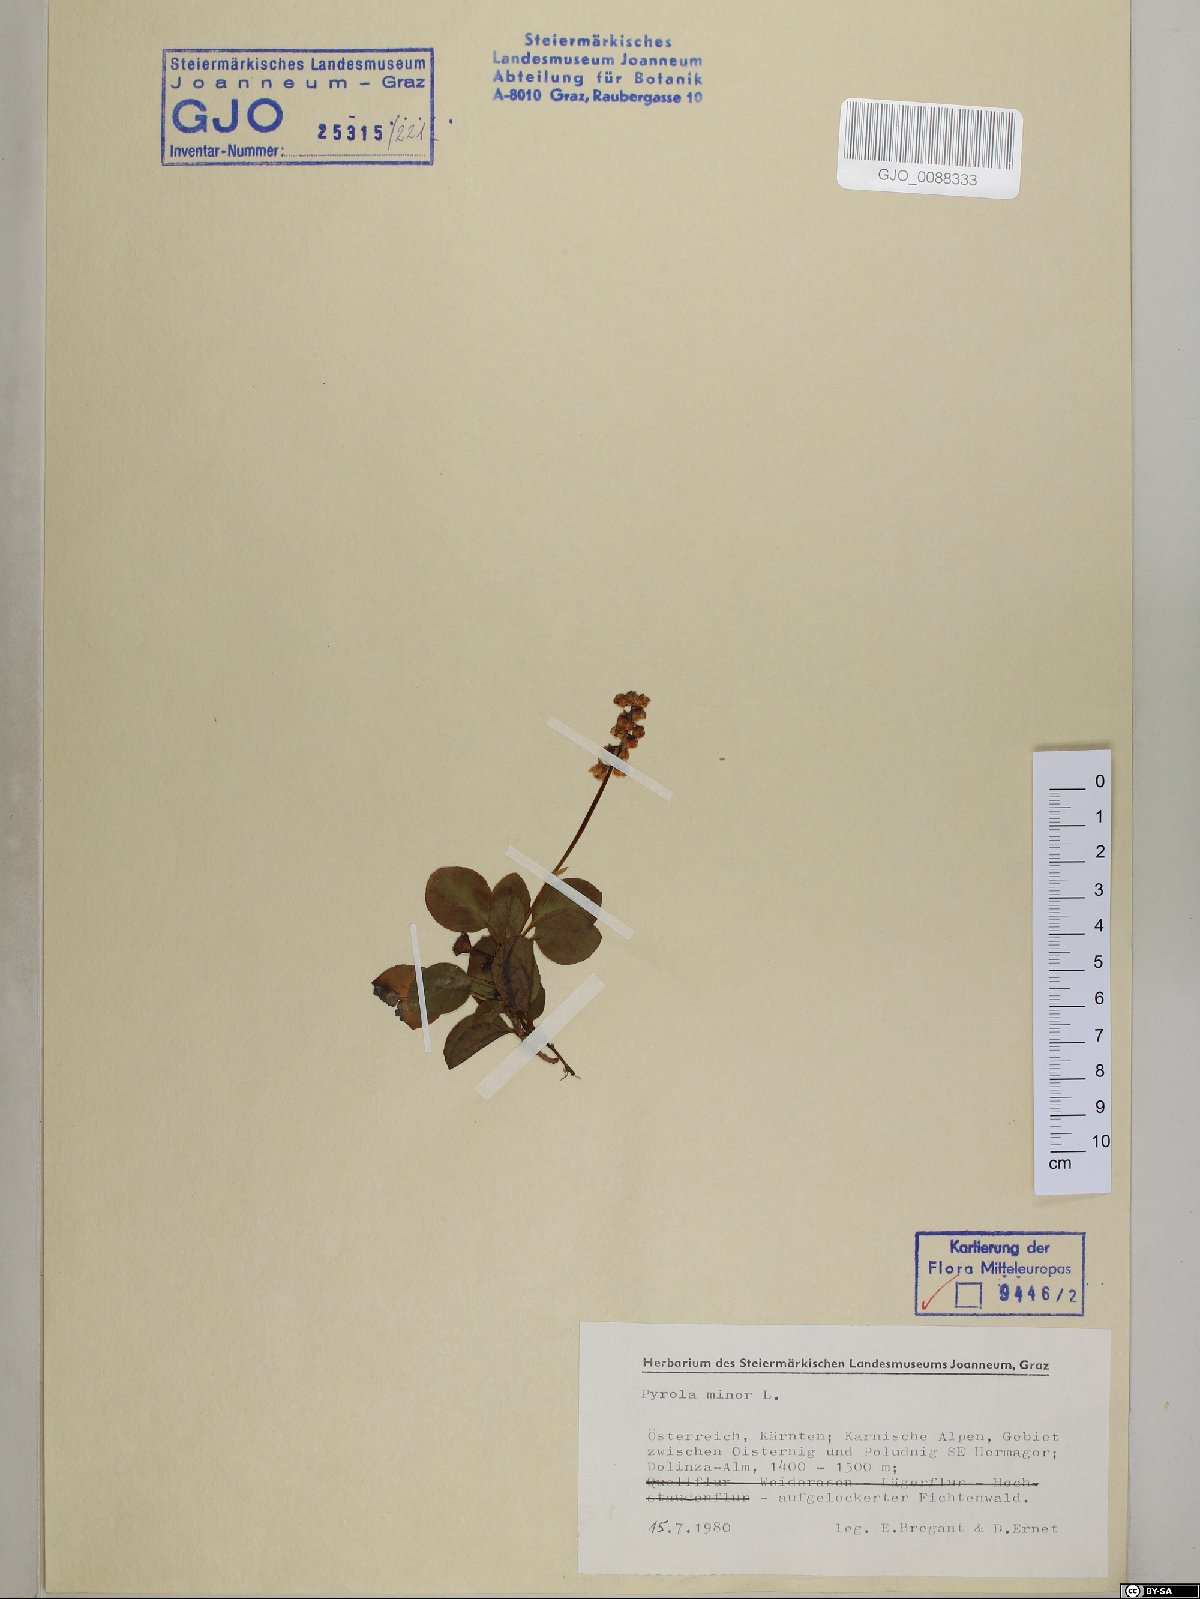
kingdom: Plantae
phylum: Tracheophyta
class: Magnoliopsida
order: Ericales
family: Ericaceae
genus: Pyrola
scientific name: Pyrola minor
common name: Common wintergreen
